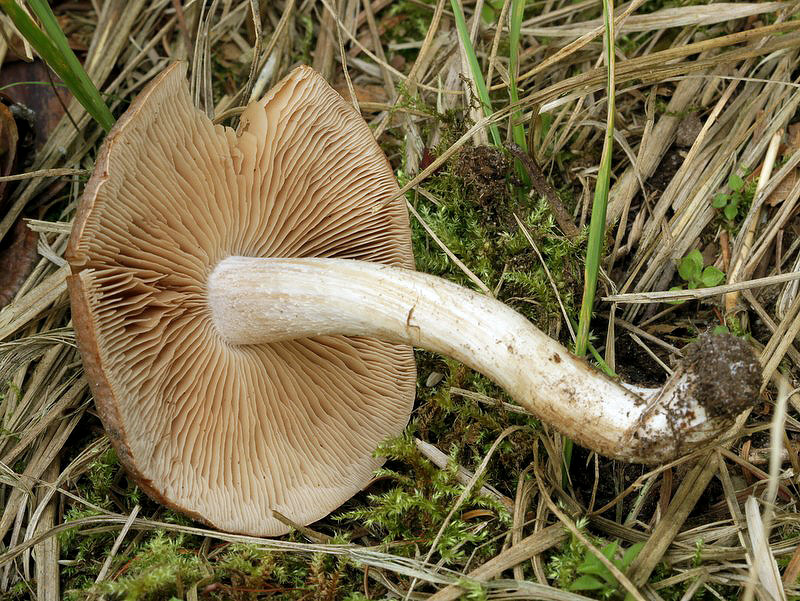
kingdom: Fungi
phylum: Basidiomycota
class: Agaricomycetes
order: Agaricales
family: Hymenogastraceae
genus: Hebeloma
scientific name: Hebeloma theobrominum
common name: rødbrun tåreblad
